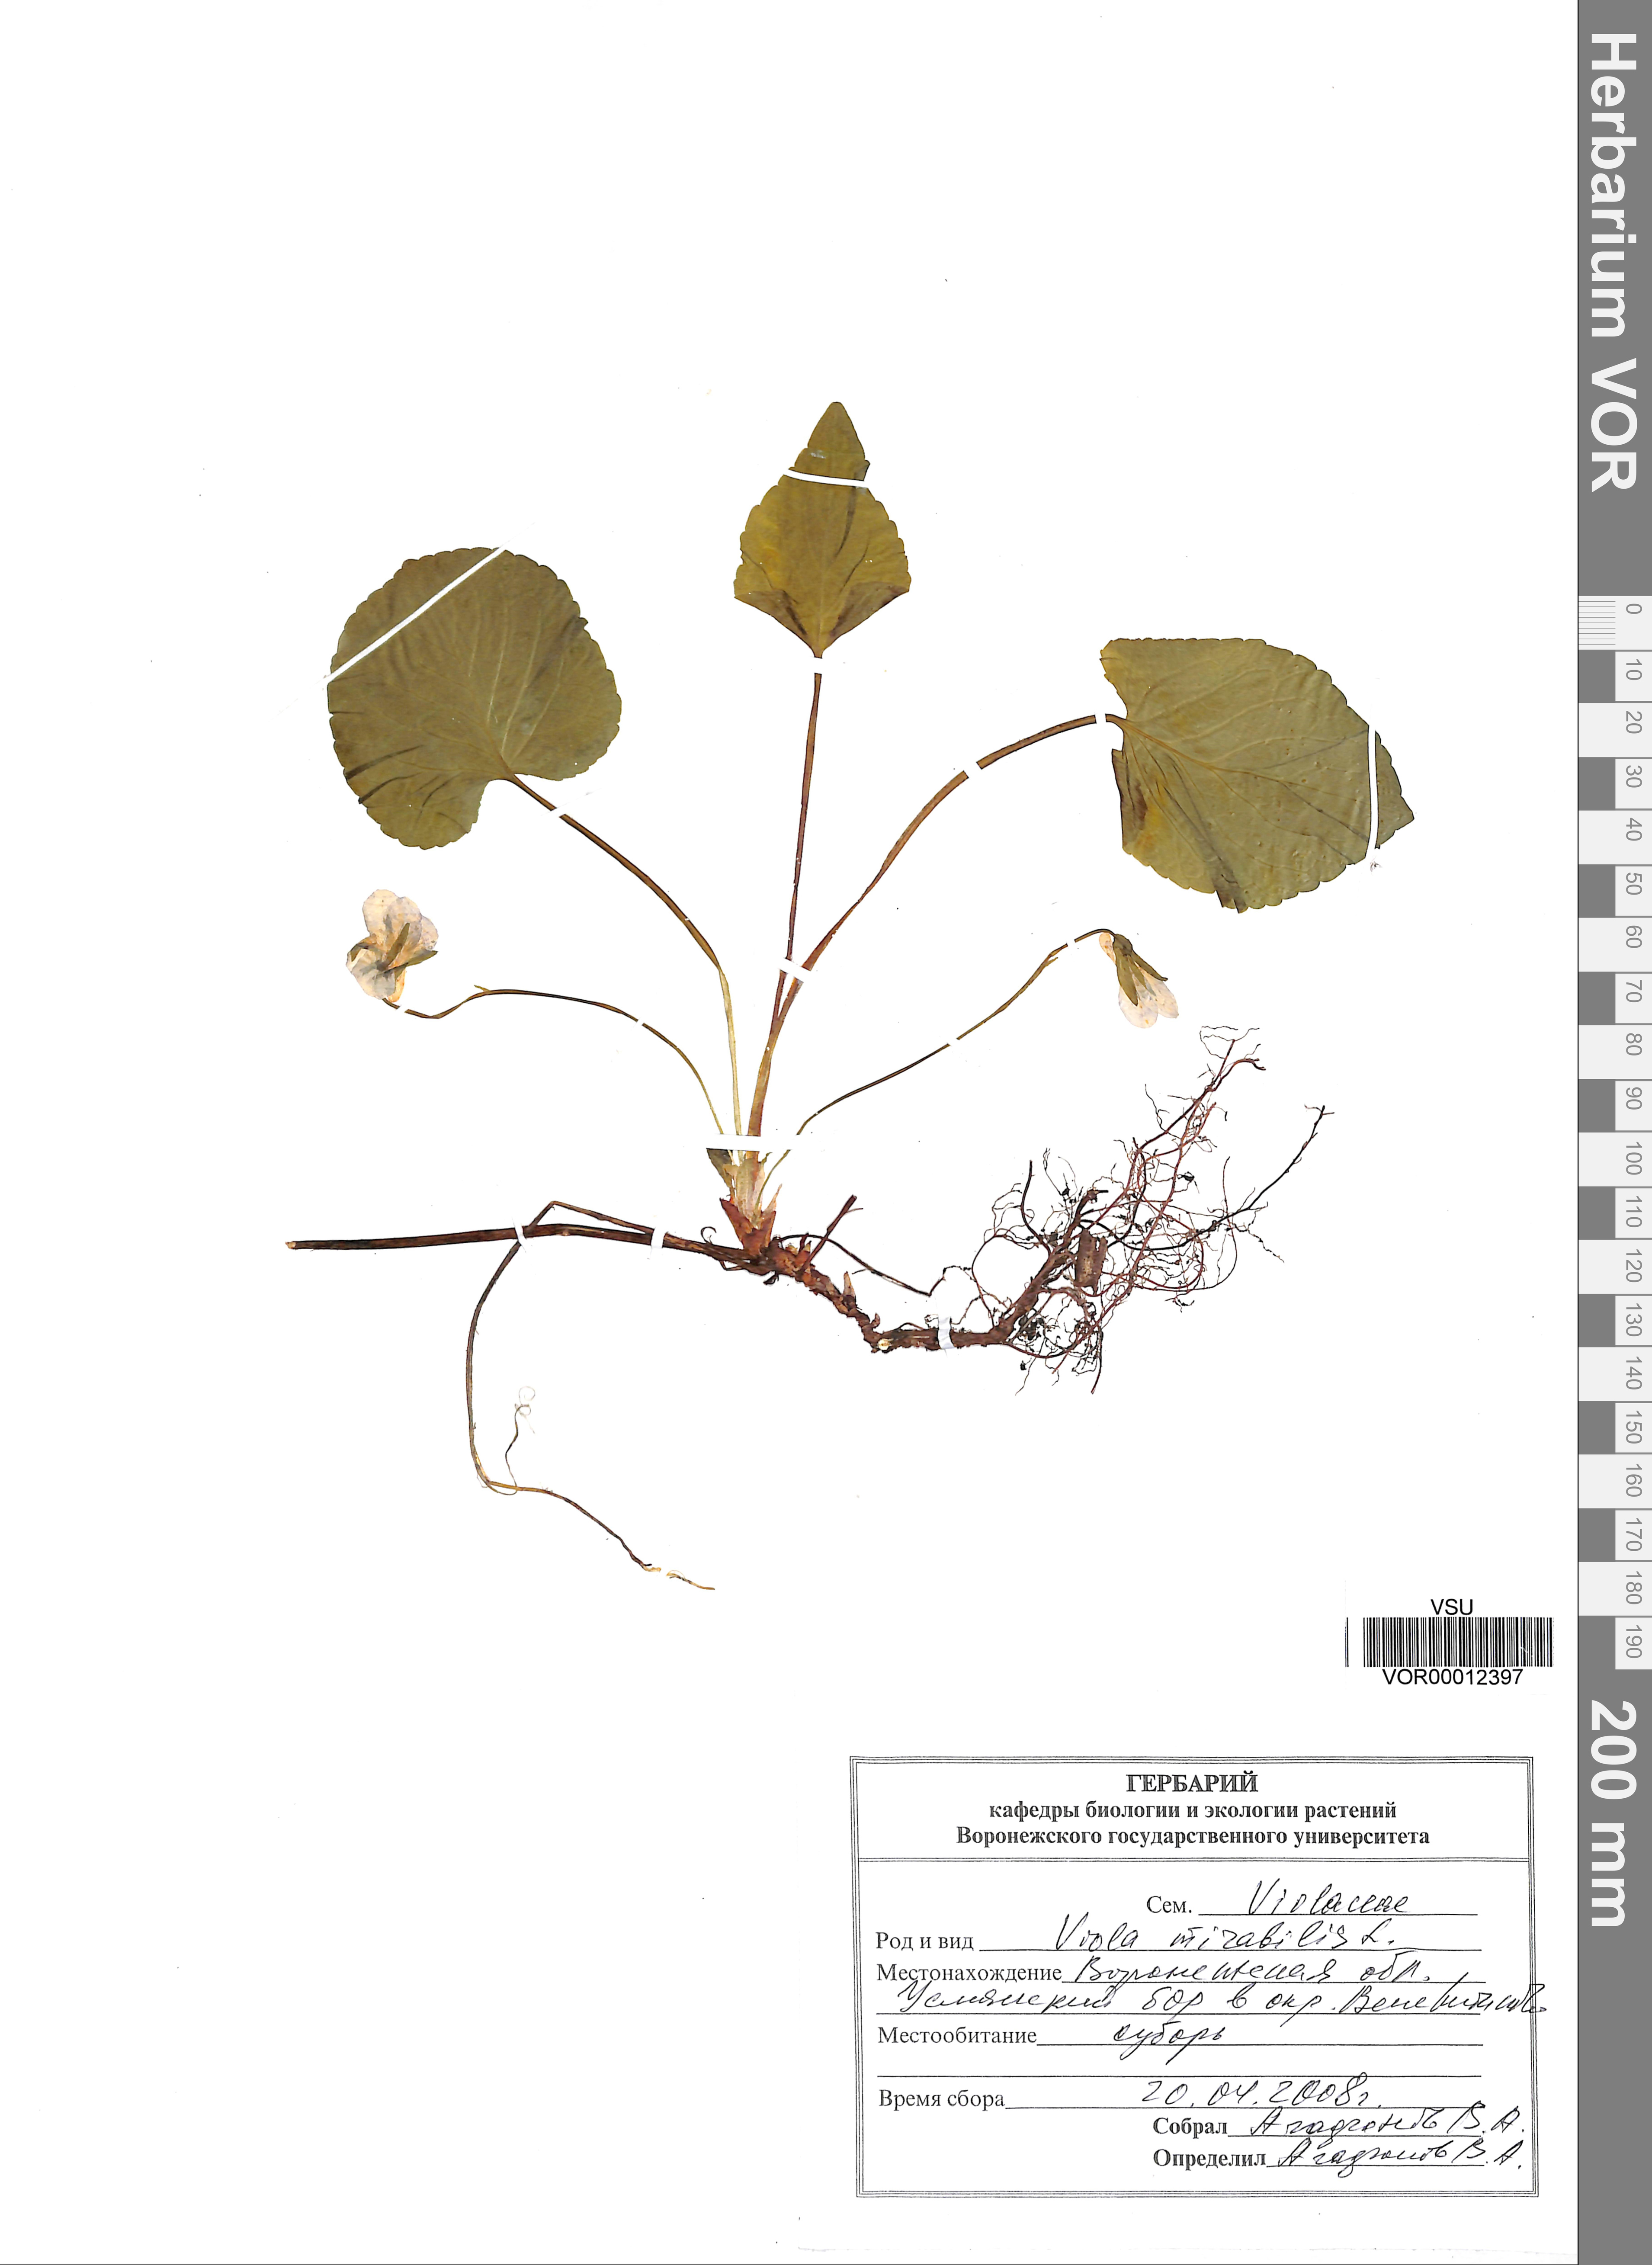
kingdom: Plantae
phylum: Tracheophyta
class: Magnoliopsida
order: Malpighiales
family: Violaceae
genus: Viola
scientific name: Viola mirabilis
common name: Wonder violet
